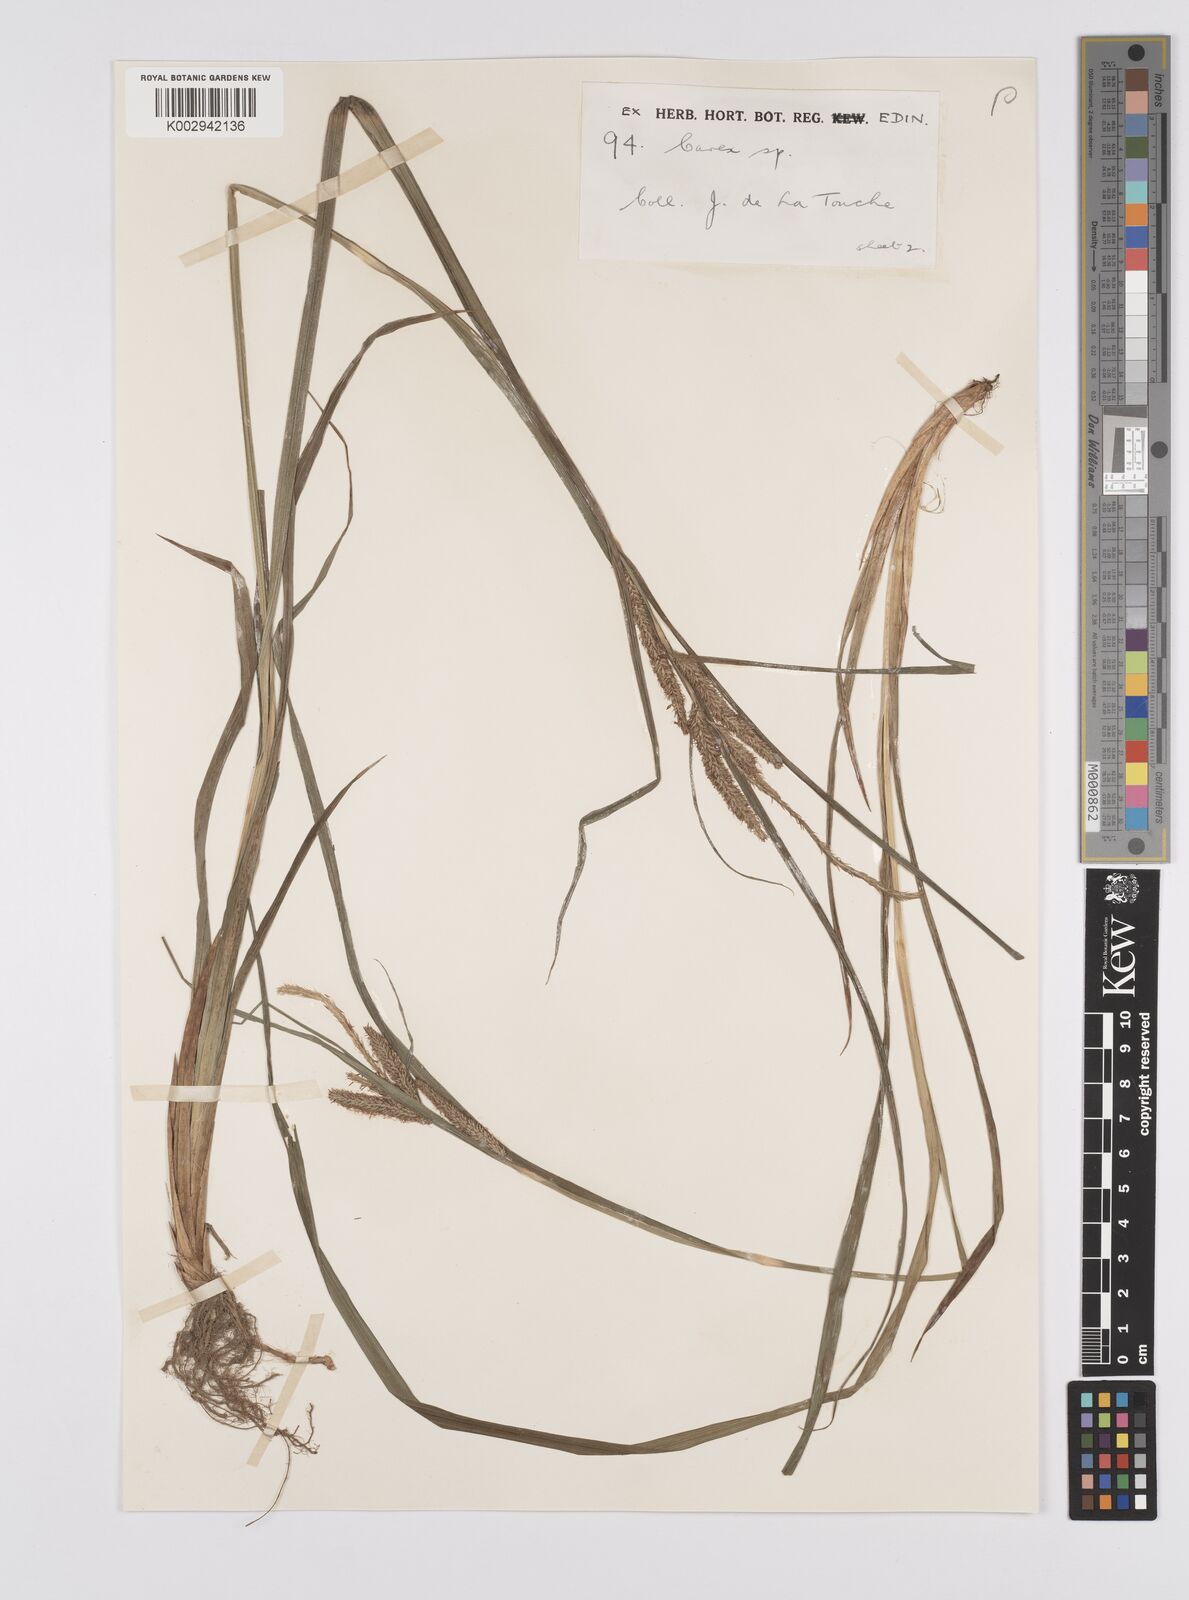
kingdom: Plantae
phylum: Tracheophyta
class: Liliopsida
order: Poales
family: Cyperaceae
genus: Carex
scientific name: Carex japonica
